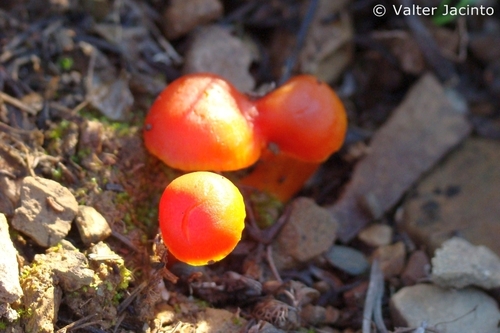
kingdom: Fungi
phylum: Basidiomycota
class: Agaricomycetes
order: Agaricales
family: Hygrophoraceae
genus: Hygrocybe
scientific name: Hygrocybe miniata
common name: Vermilion waxcap
